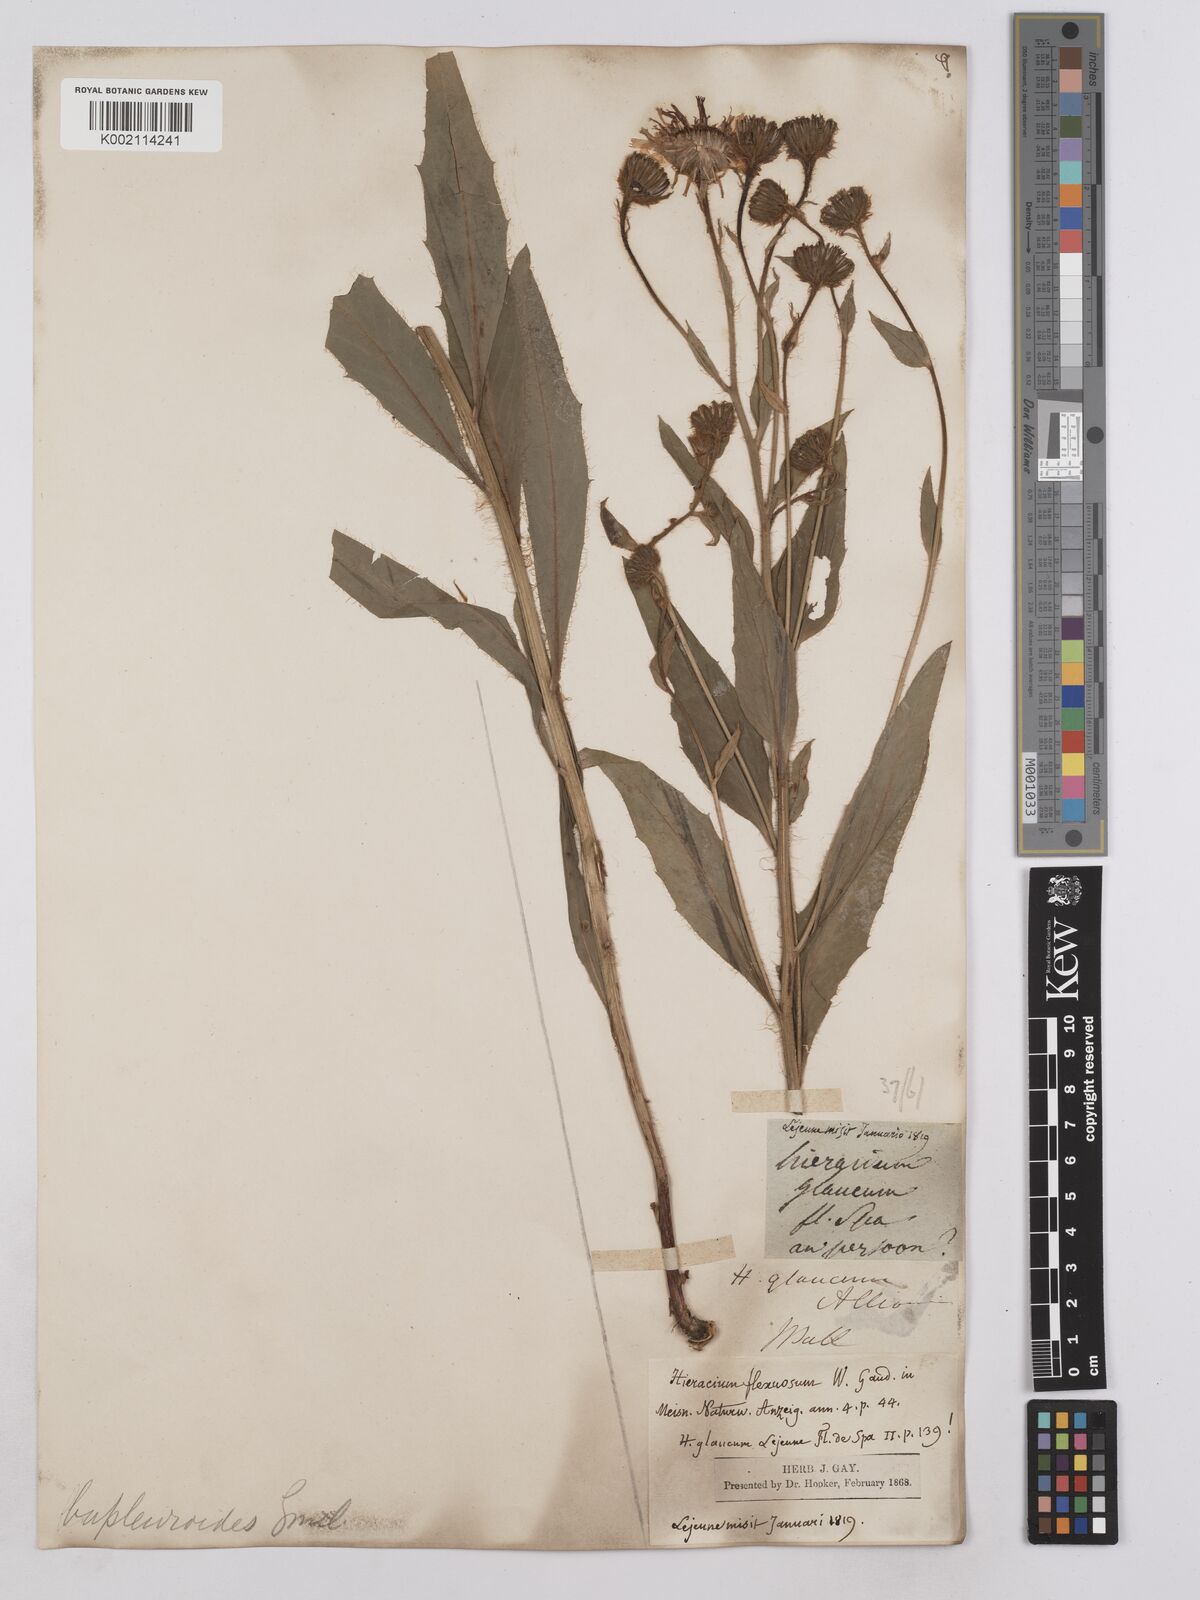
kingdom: Plantae
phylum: Tracheophyta
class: Magnoliopsida
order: Asterales
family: Asteraceae
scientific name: Asteraceae
